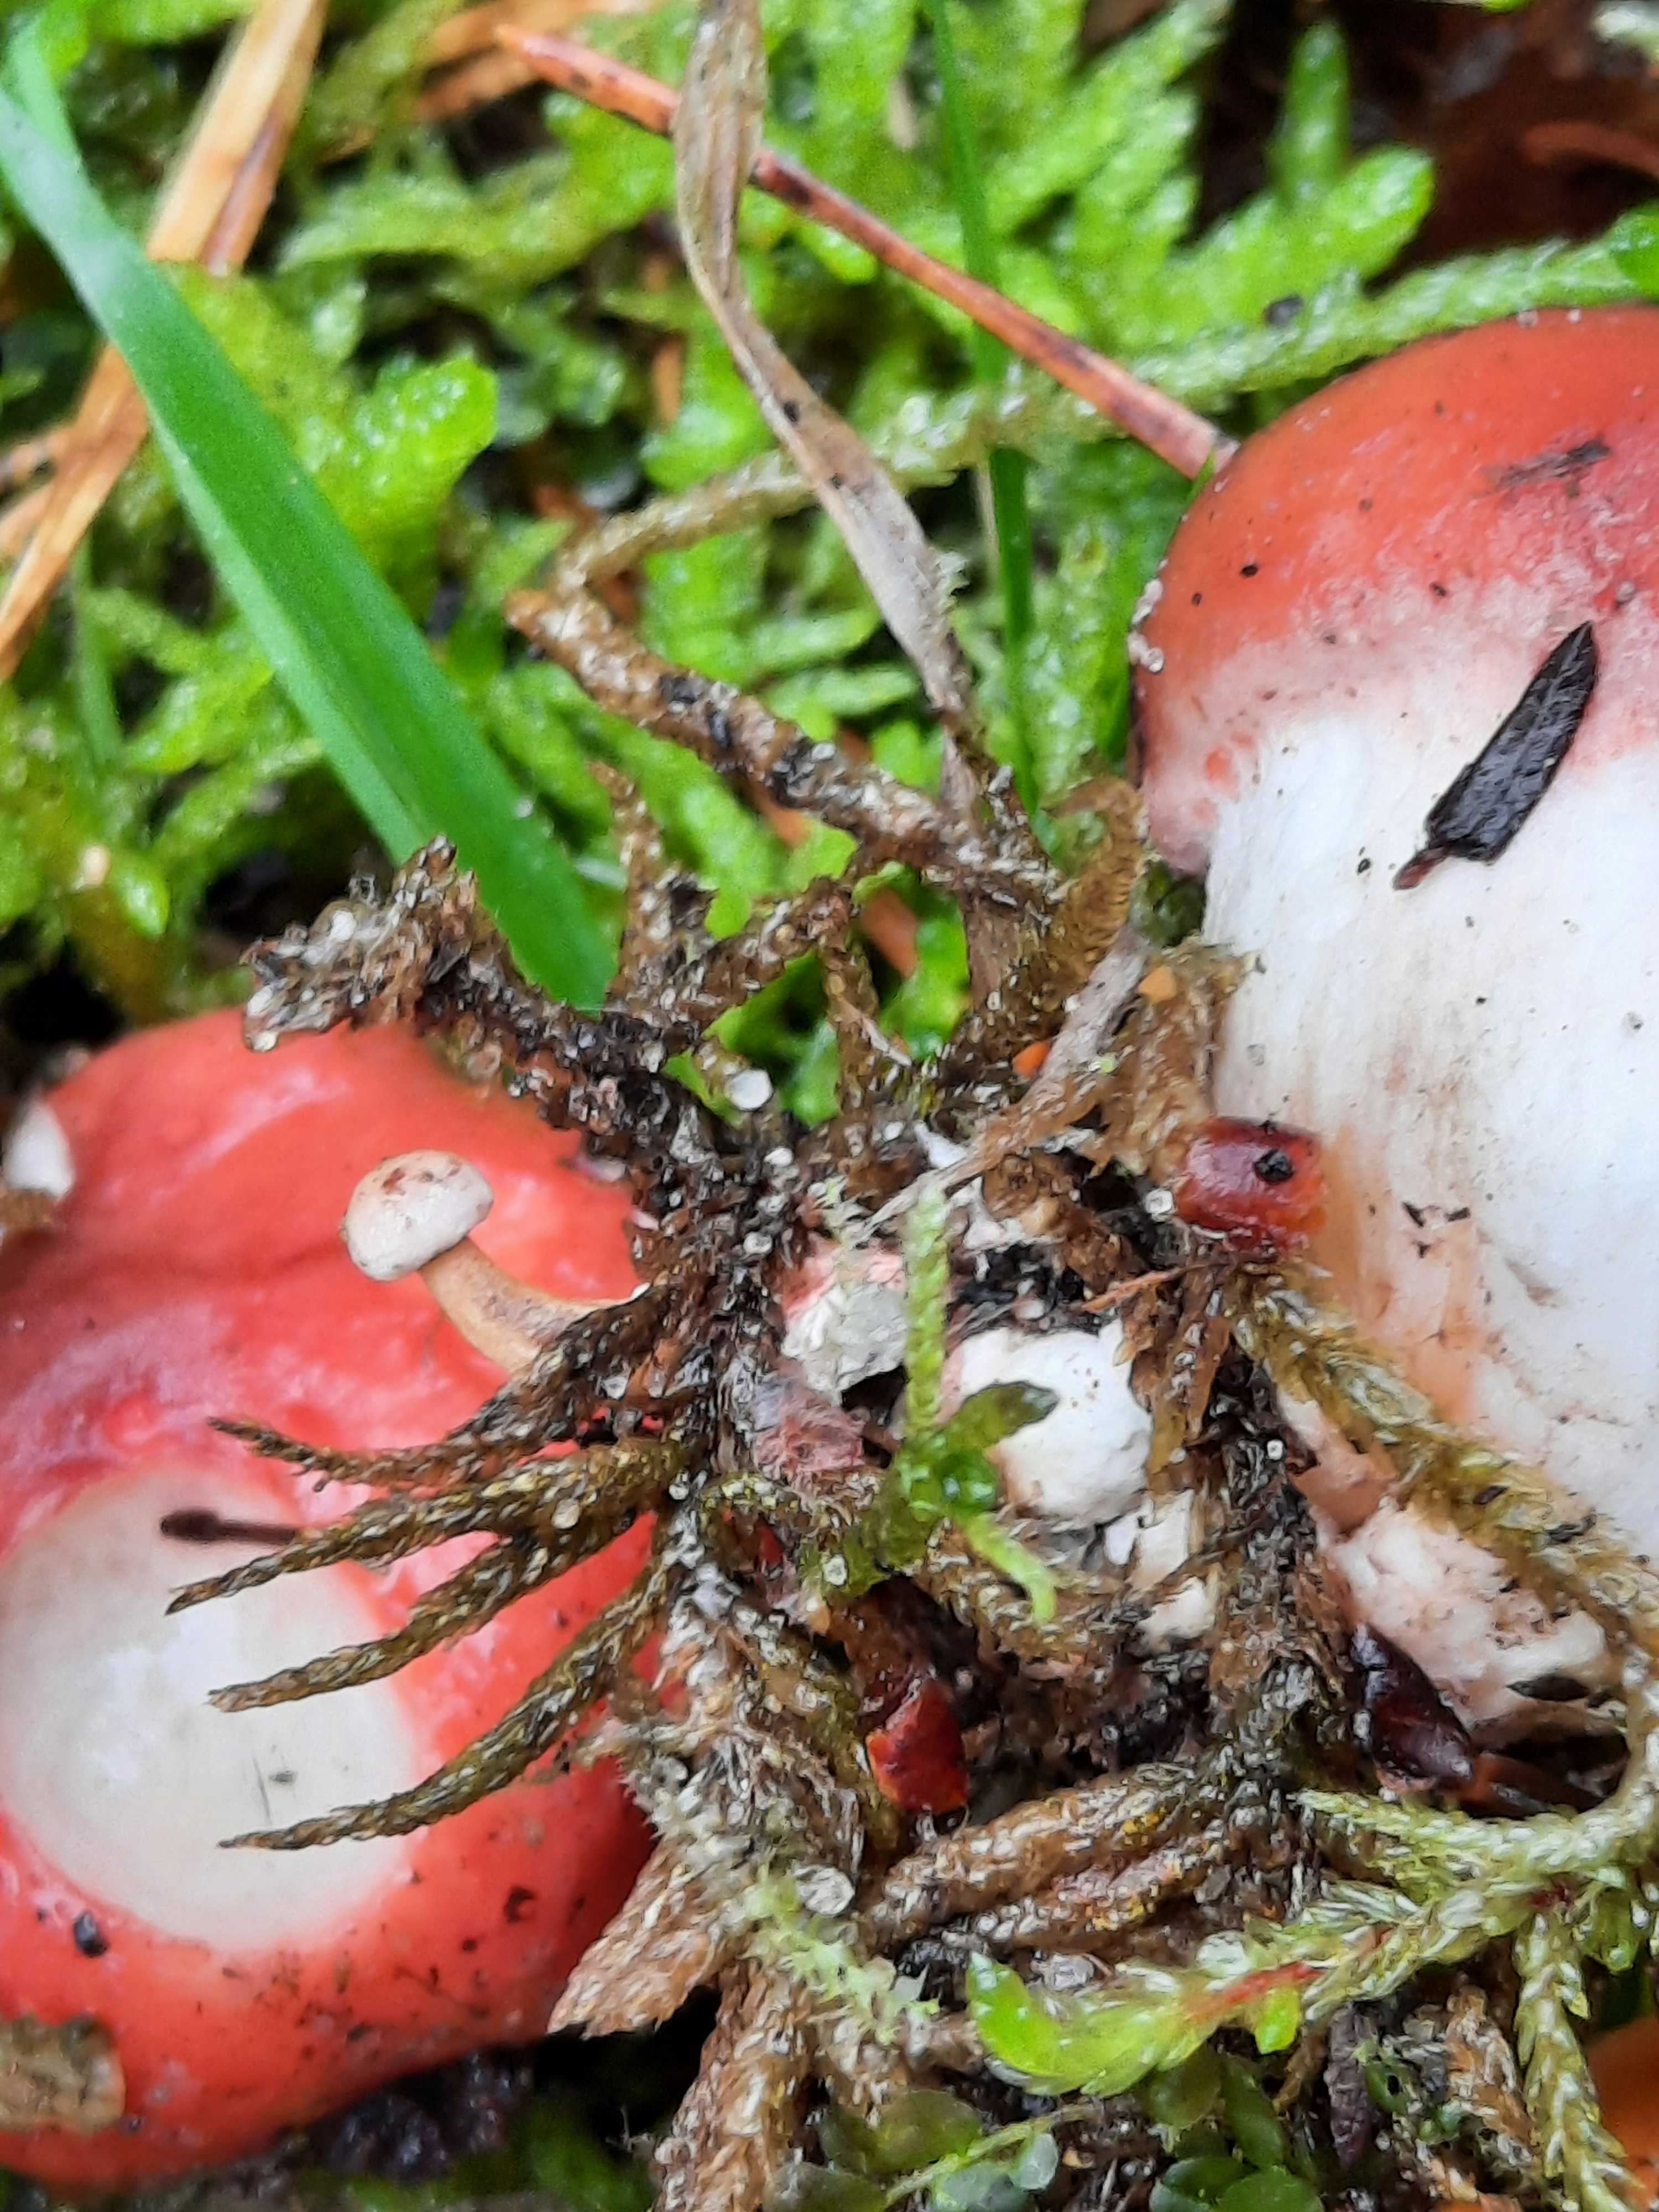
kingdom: Fungi
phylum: Basidiomycota
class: Agaricomycetes
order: Boletales
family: Gomphidiaceae
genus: Gomphidius
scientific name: Gomphidius roseus
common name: rosenrød slimslør
